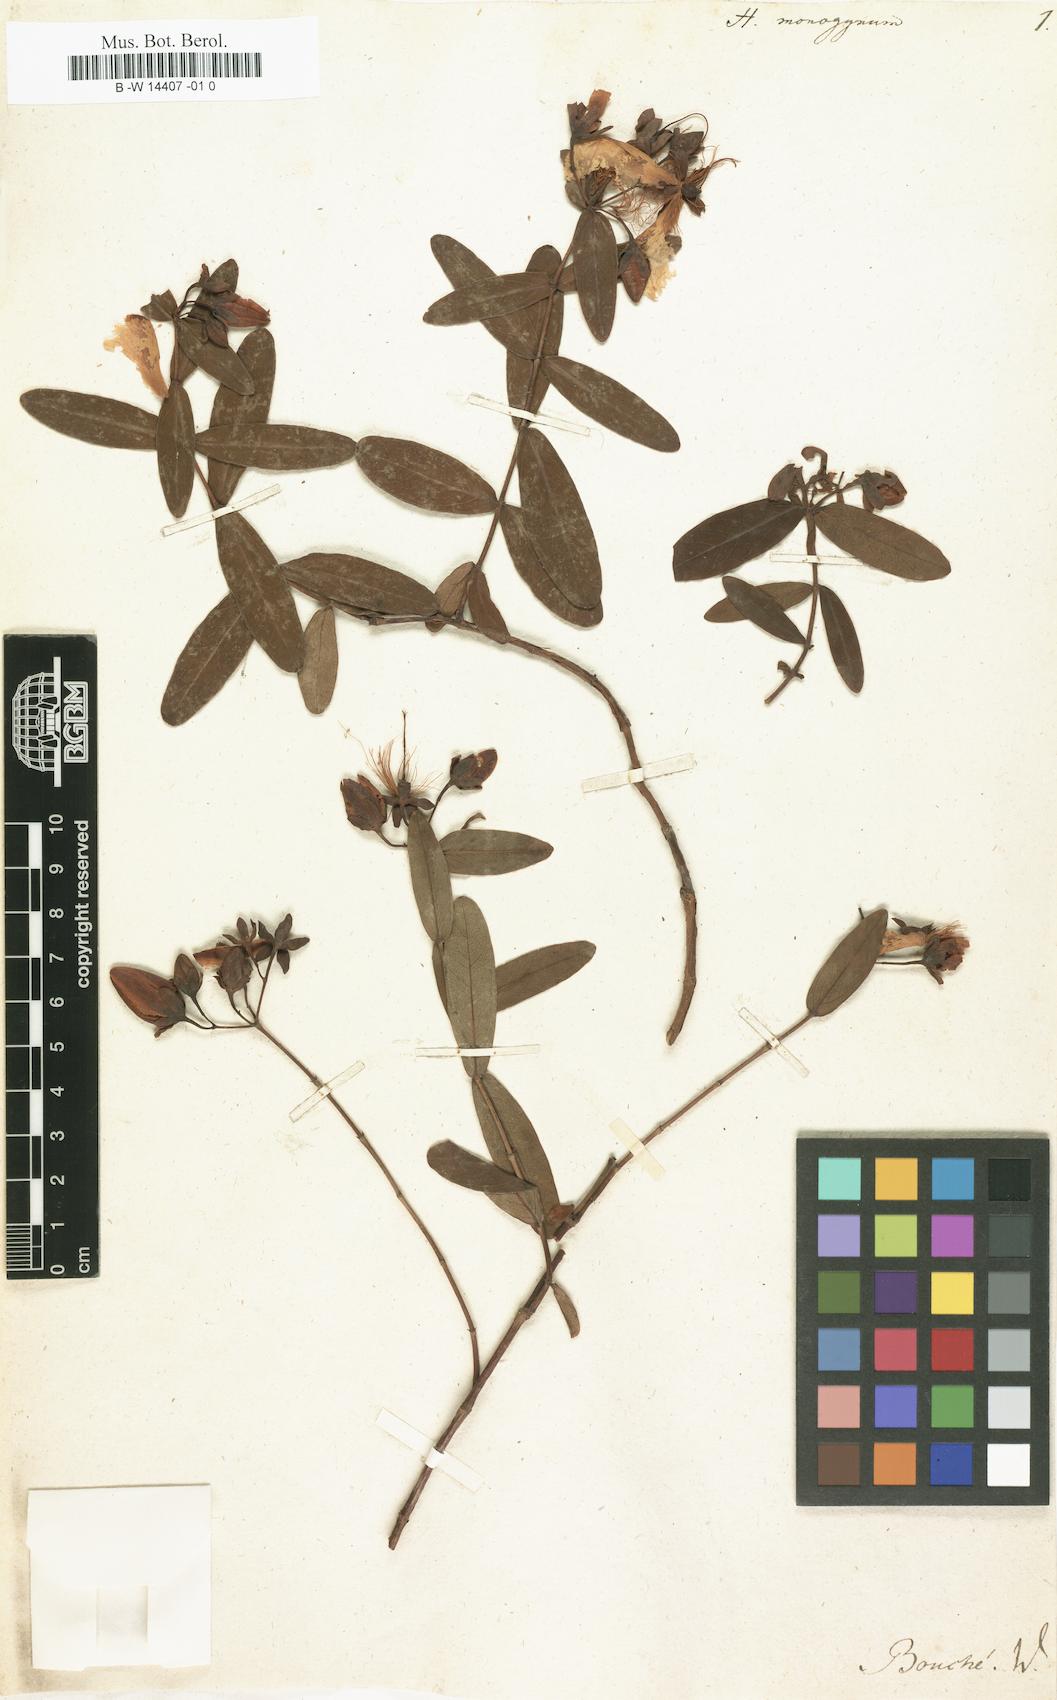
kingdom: Plantae
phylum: Tracheophyta
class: Magnoliopsida
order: Malpighiales
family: Hypericaceae
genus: Hypericum
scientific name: Hypericum monogynum
